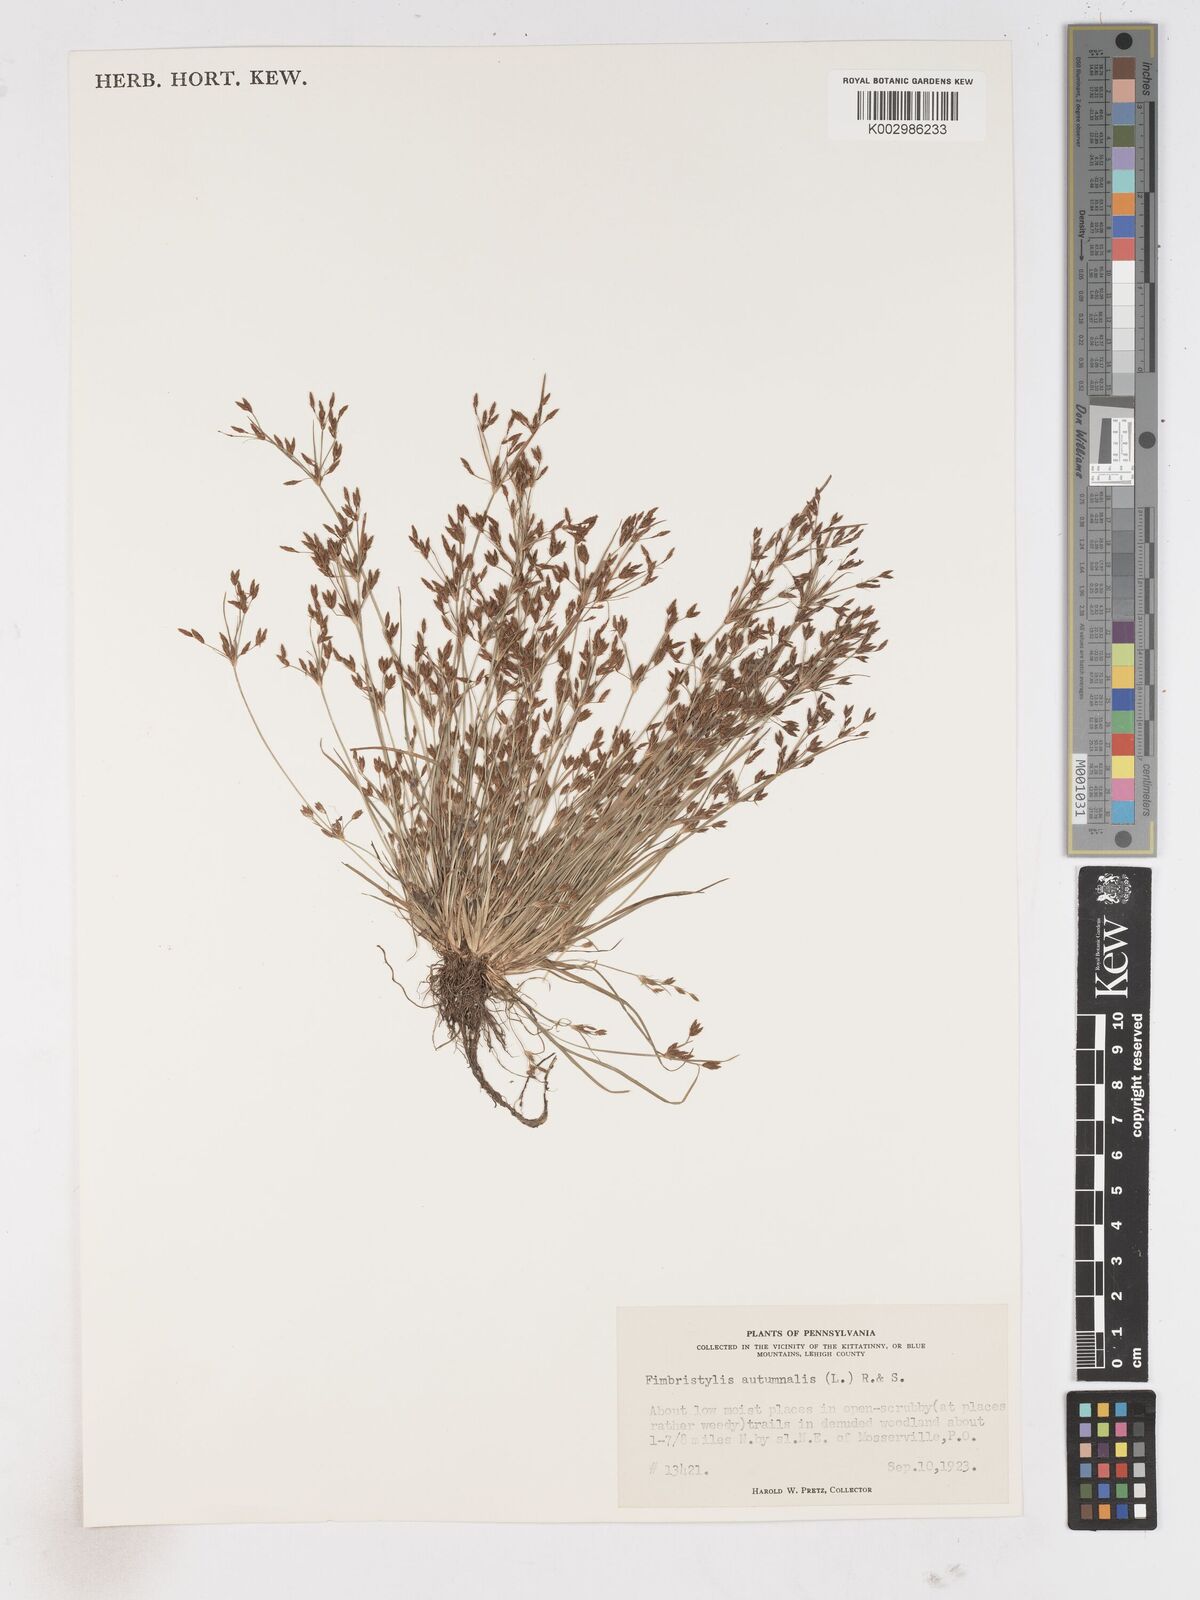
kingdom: Plantae
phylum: Tracheophyta
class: Liliopsida
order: Poales
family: Cyperaceae
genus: Fimbristylis
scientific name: Fimbristylis autumnalis
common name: Slender fimbristylis
